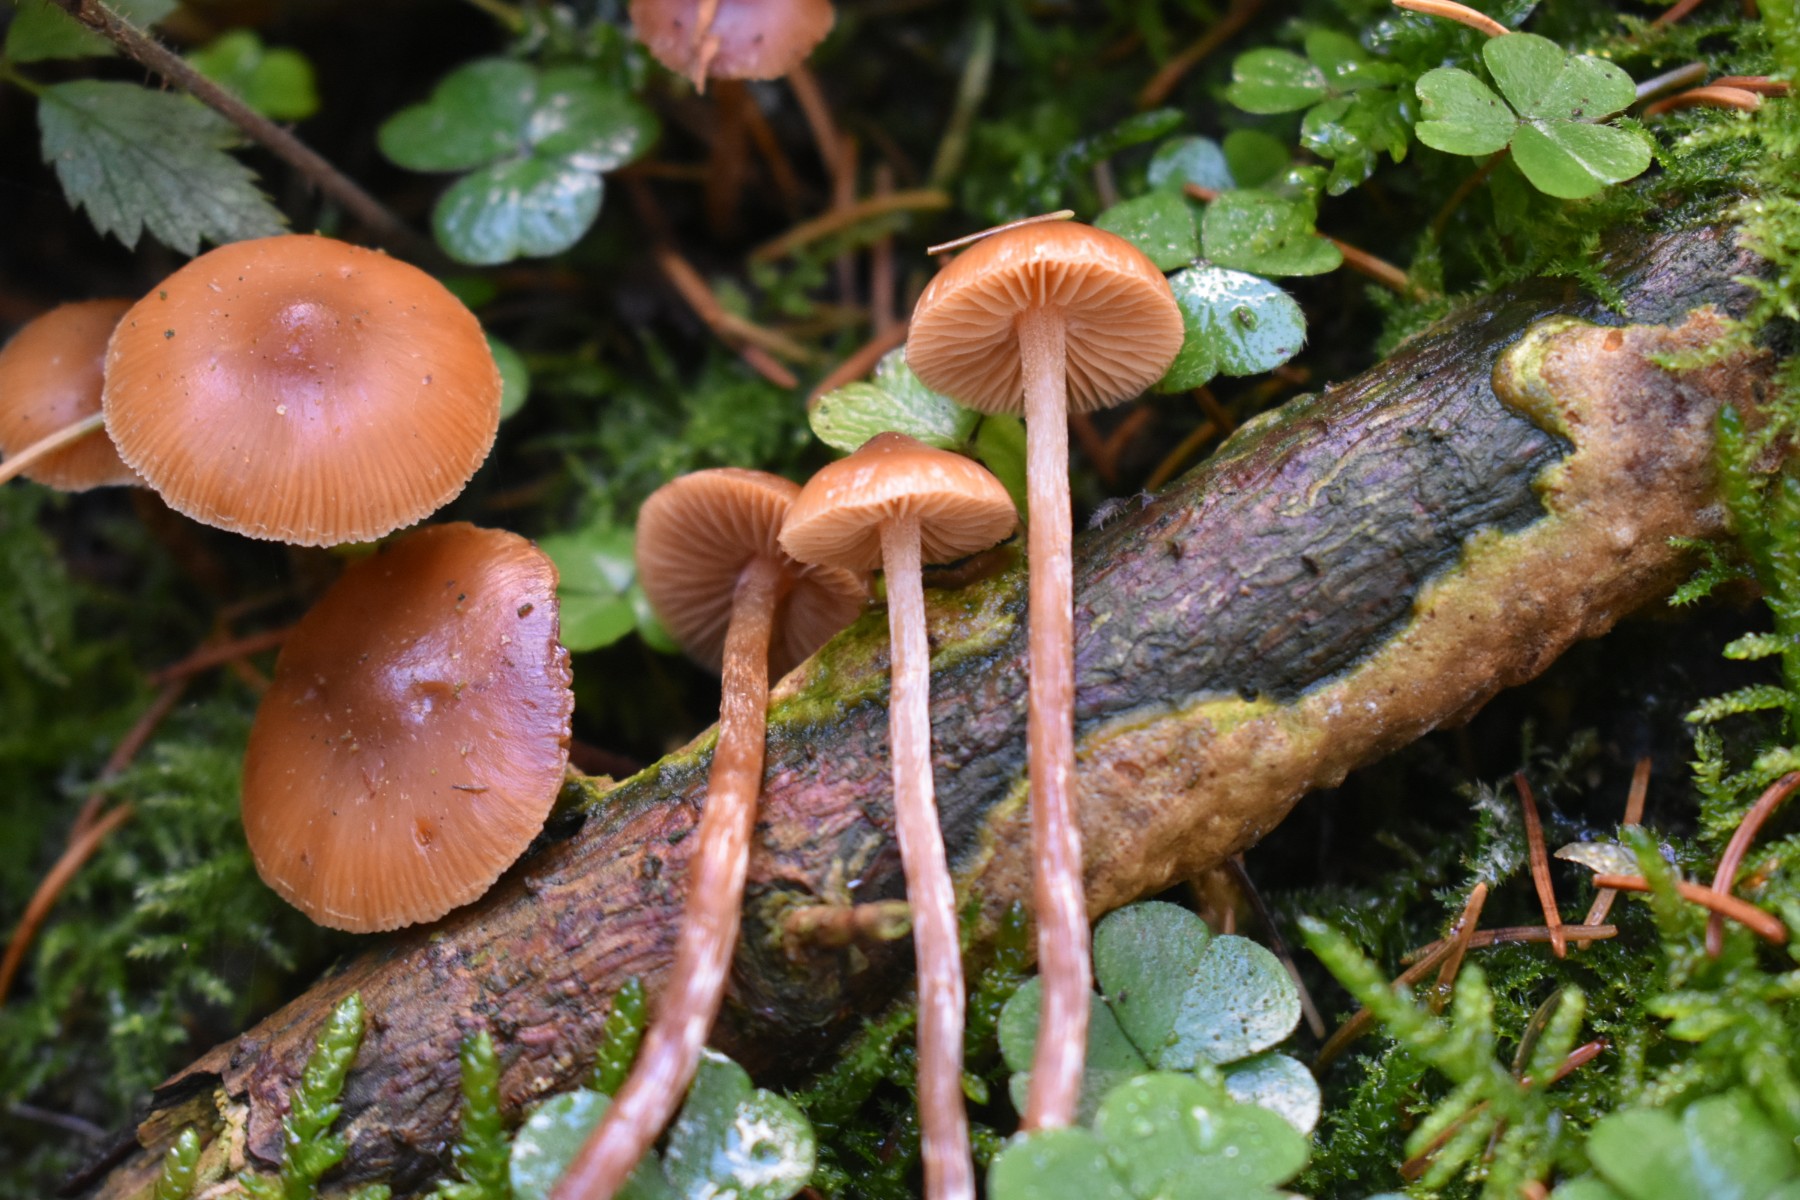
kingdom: Fungi
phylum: Basidiomycota
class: Agaricomycetes
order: Agaricales
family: Hymenogastraceae
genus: Galerina
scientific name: Galerina sideroides
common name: træflis-hjelmhat
